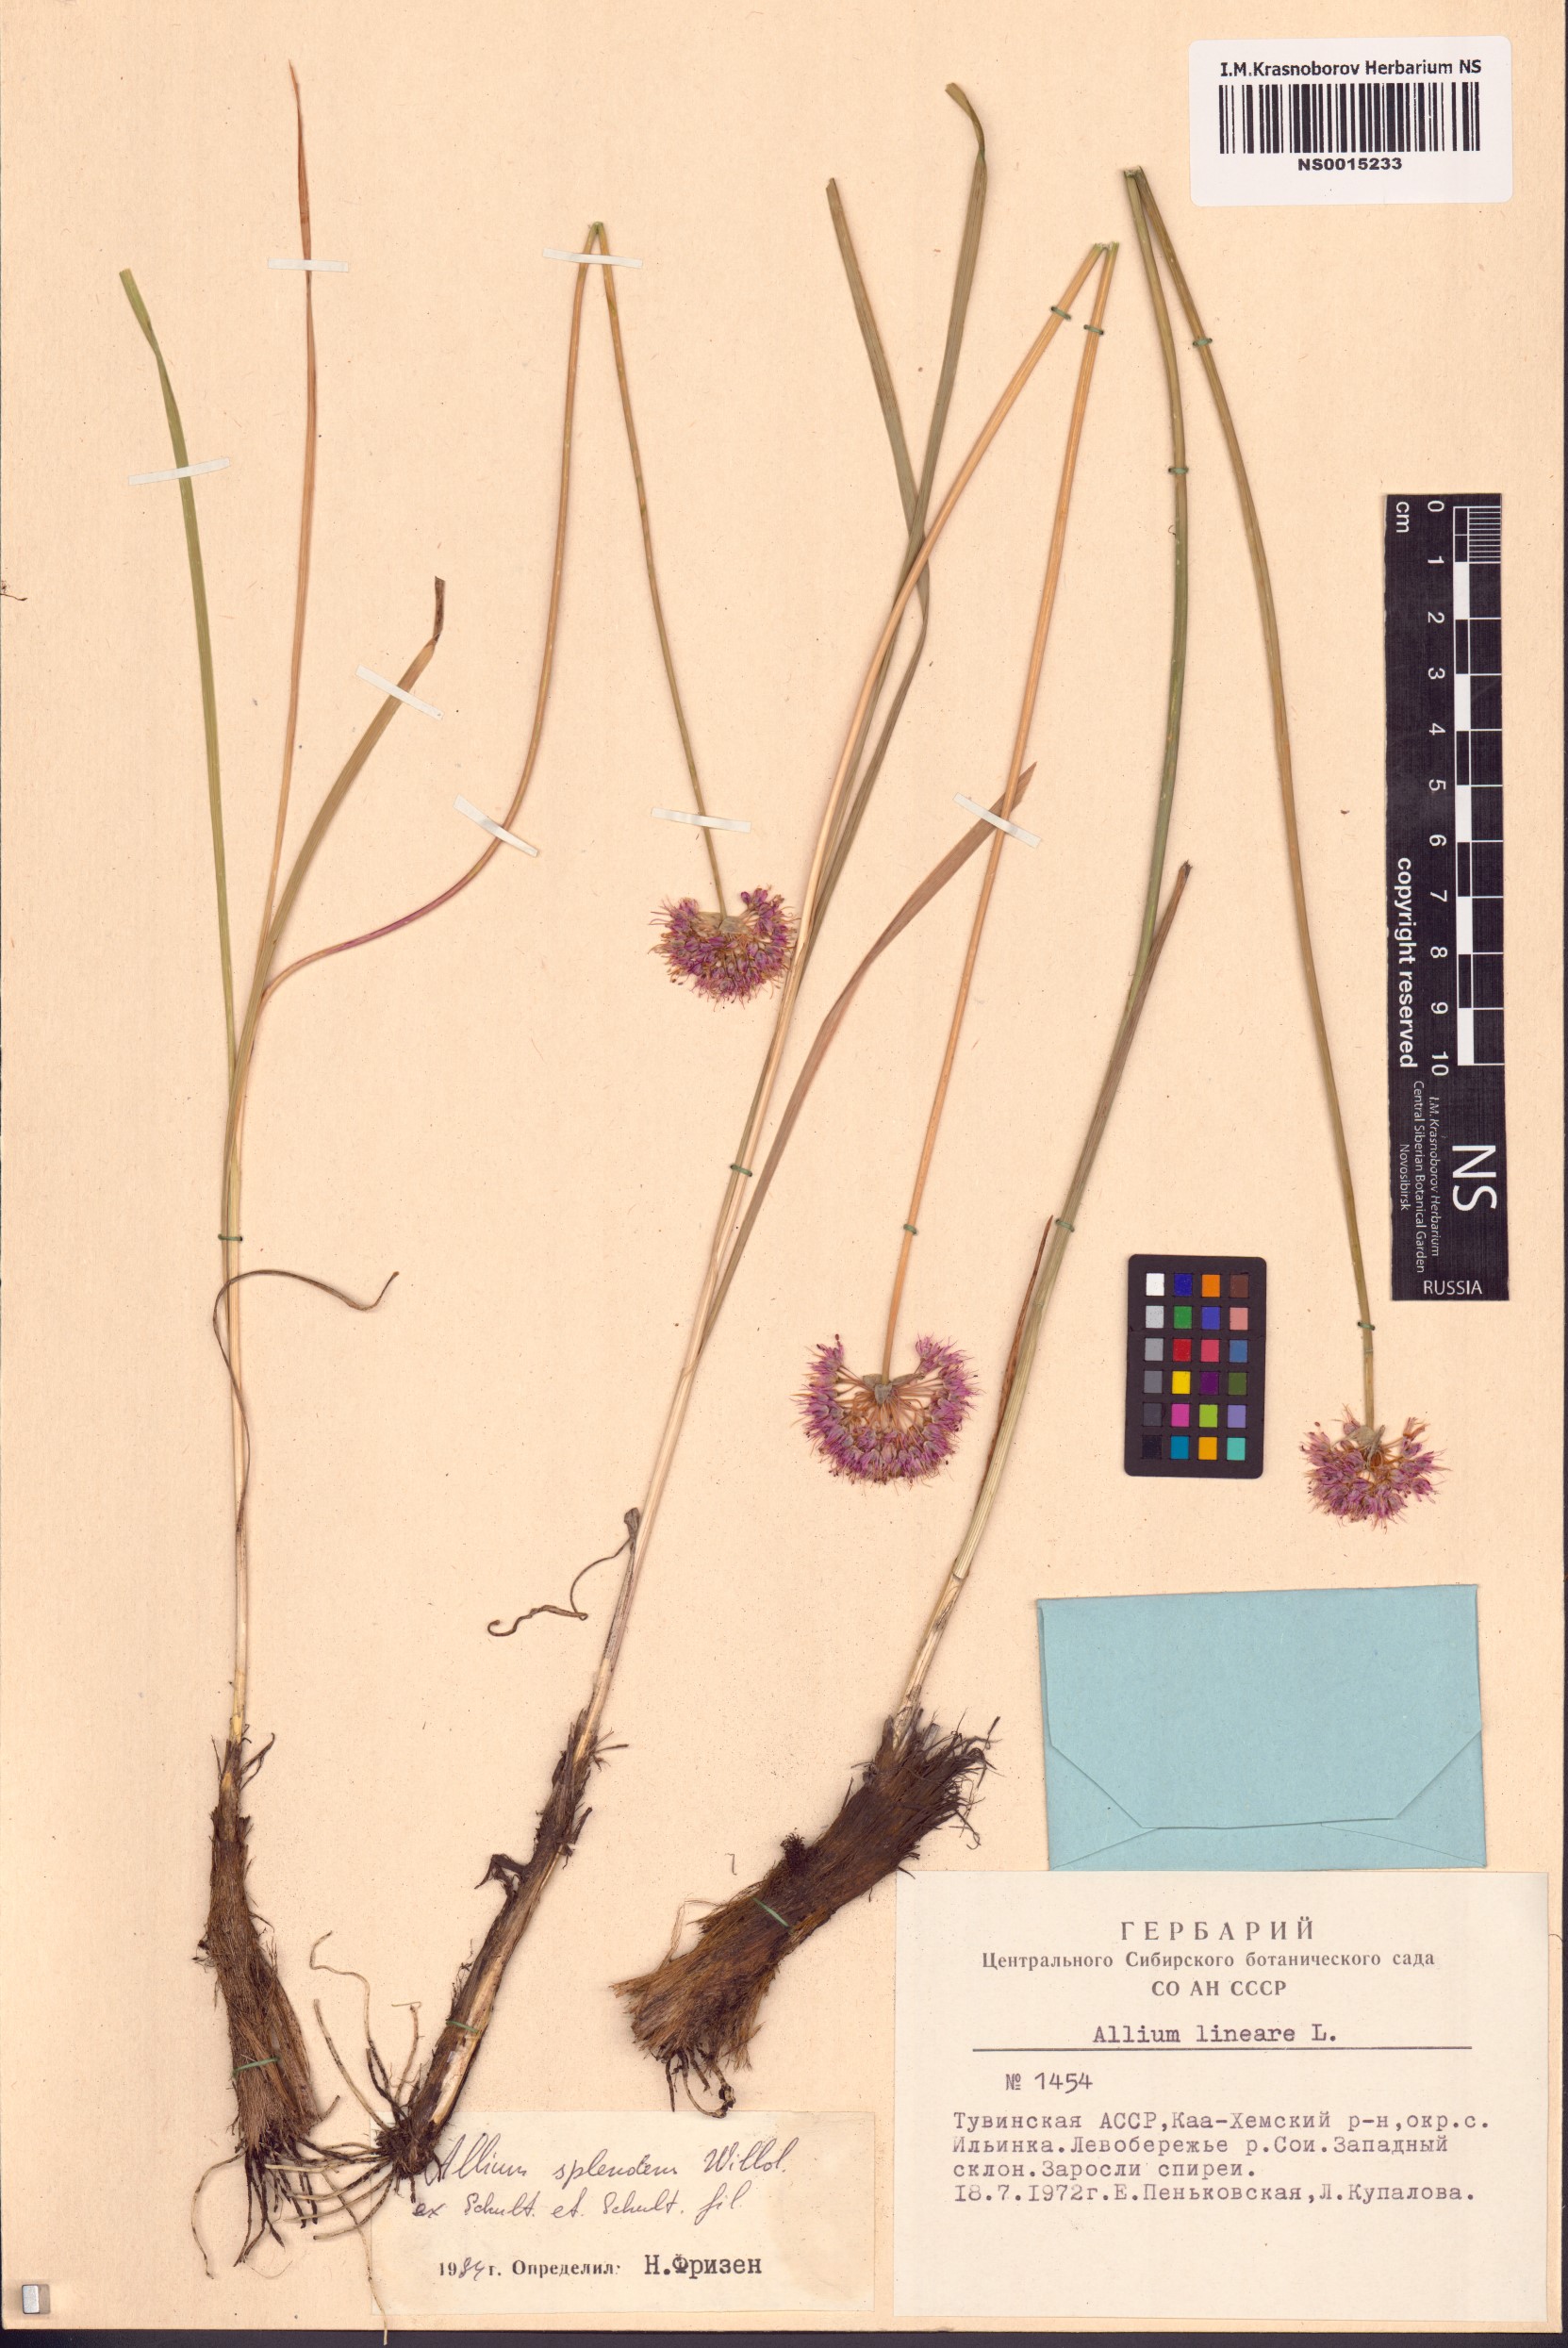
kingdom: Plantae
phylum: Tracheophyta
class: Liliopsida
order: Asparagales
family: Amaryllidaceae
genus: Allium
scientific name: Allium splendens
